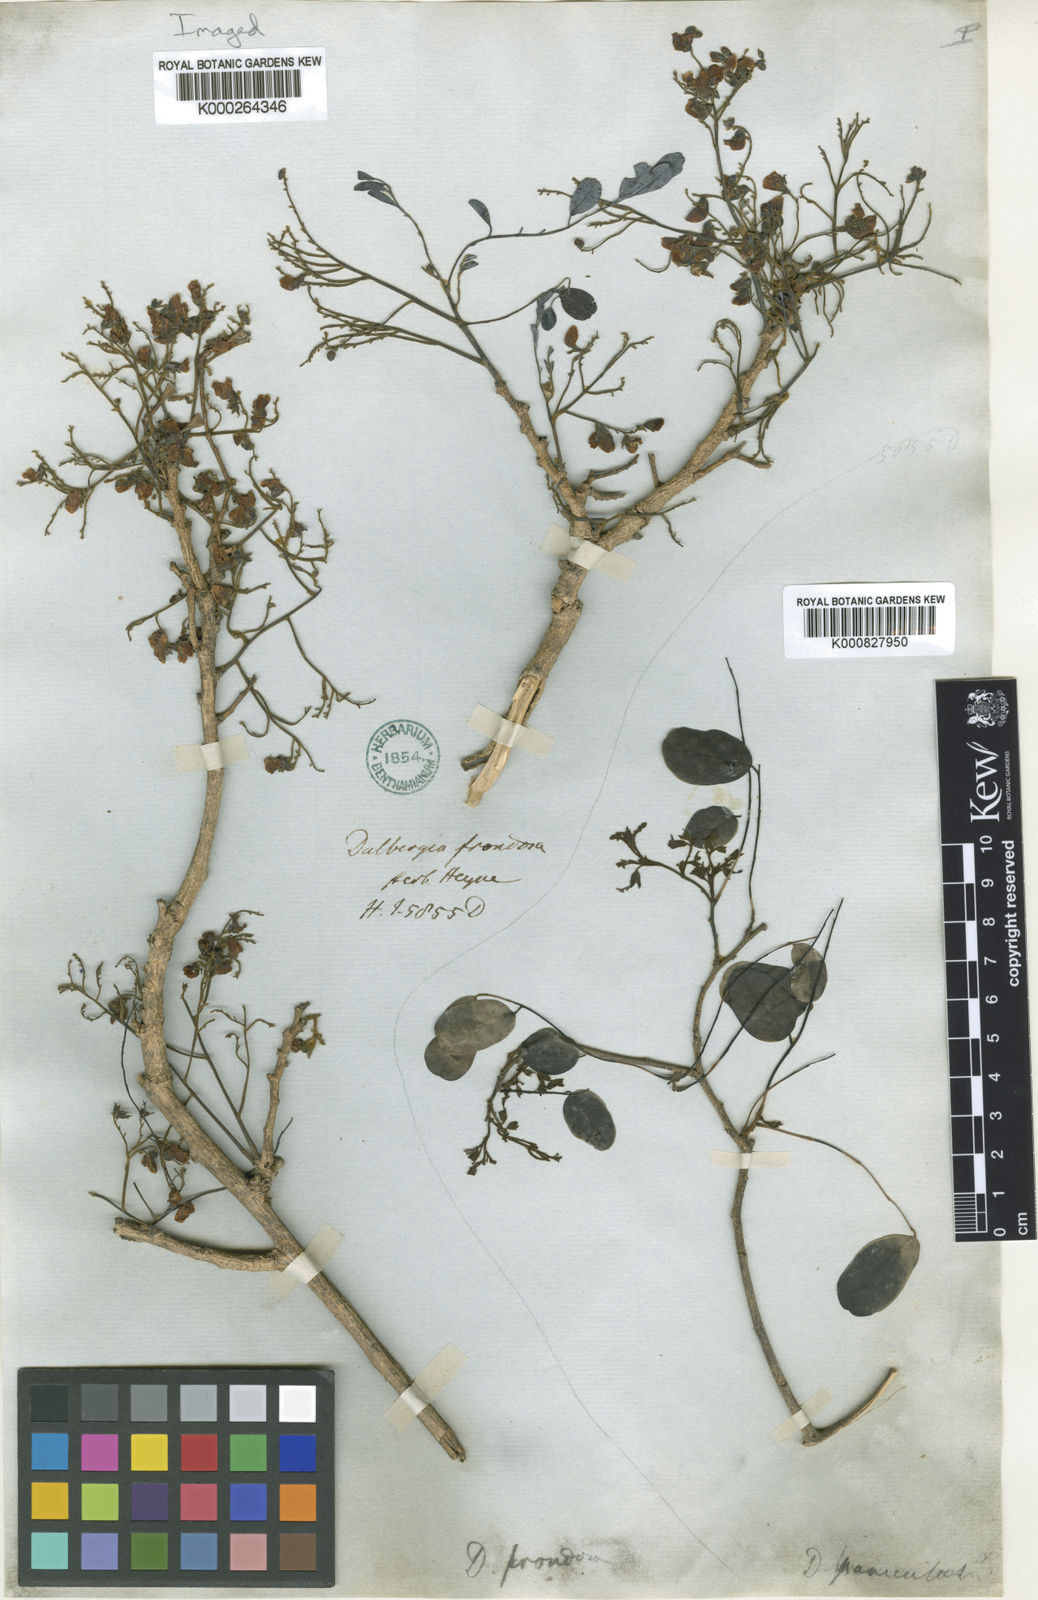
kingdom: Plantae
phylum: Tracheophyta
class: Magnoliopsida
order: Fabales
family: Fabaceae
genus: Dalbergia
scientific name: Dalbergia lanceolaria
